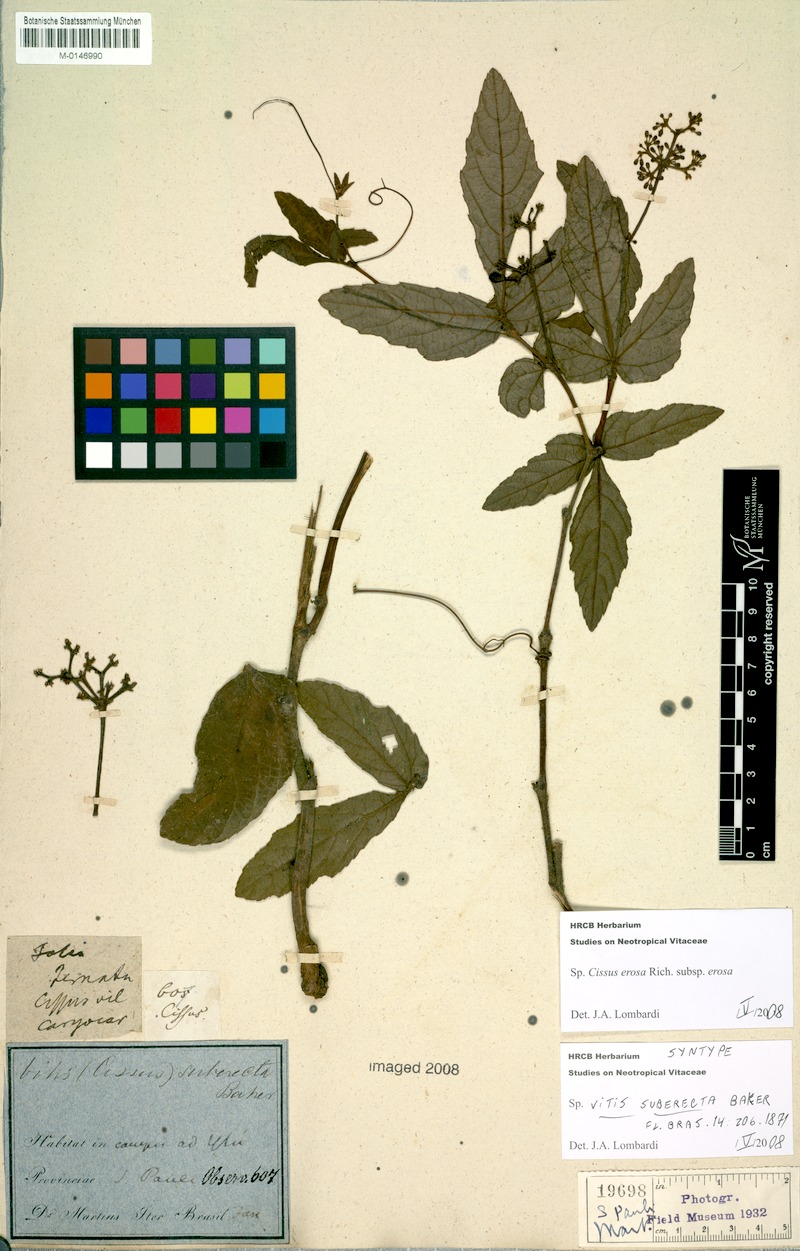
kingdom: Plantae
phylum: Tracheophyta
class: Magnoliopsida
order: Vitales
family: Vitaceae
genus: Cissus
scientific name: Cissus erosa
